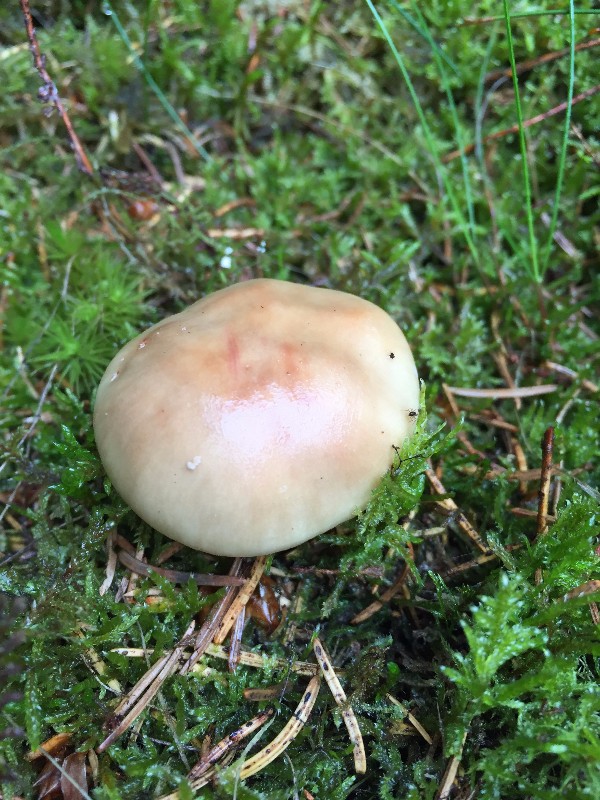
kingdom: Fungi
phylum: Basidiomycota
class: Agaricomycetes
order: Agaricales
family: Amanitaceae
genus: Amanita
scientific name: Amanita rubescens
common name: rødmende fluesvamp
